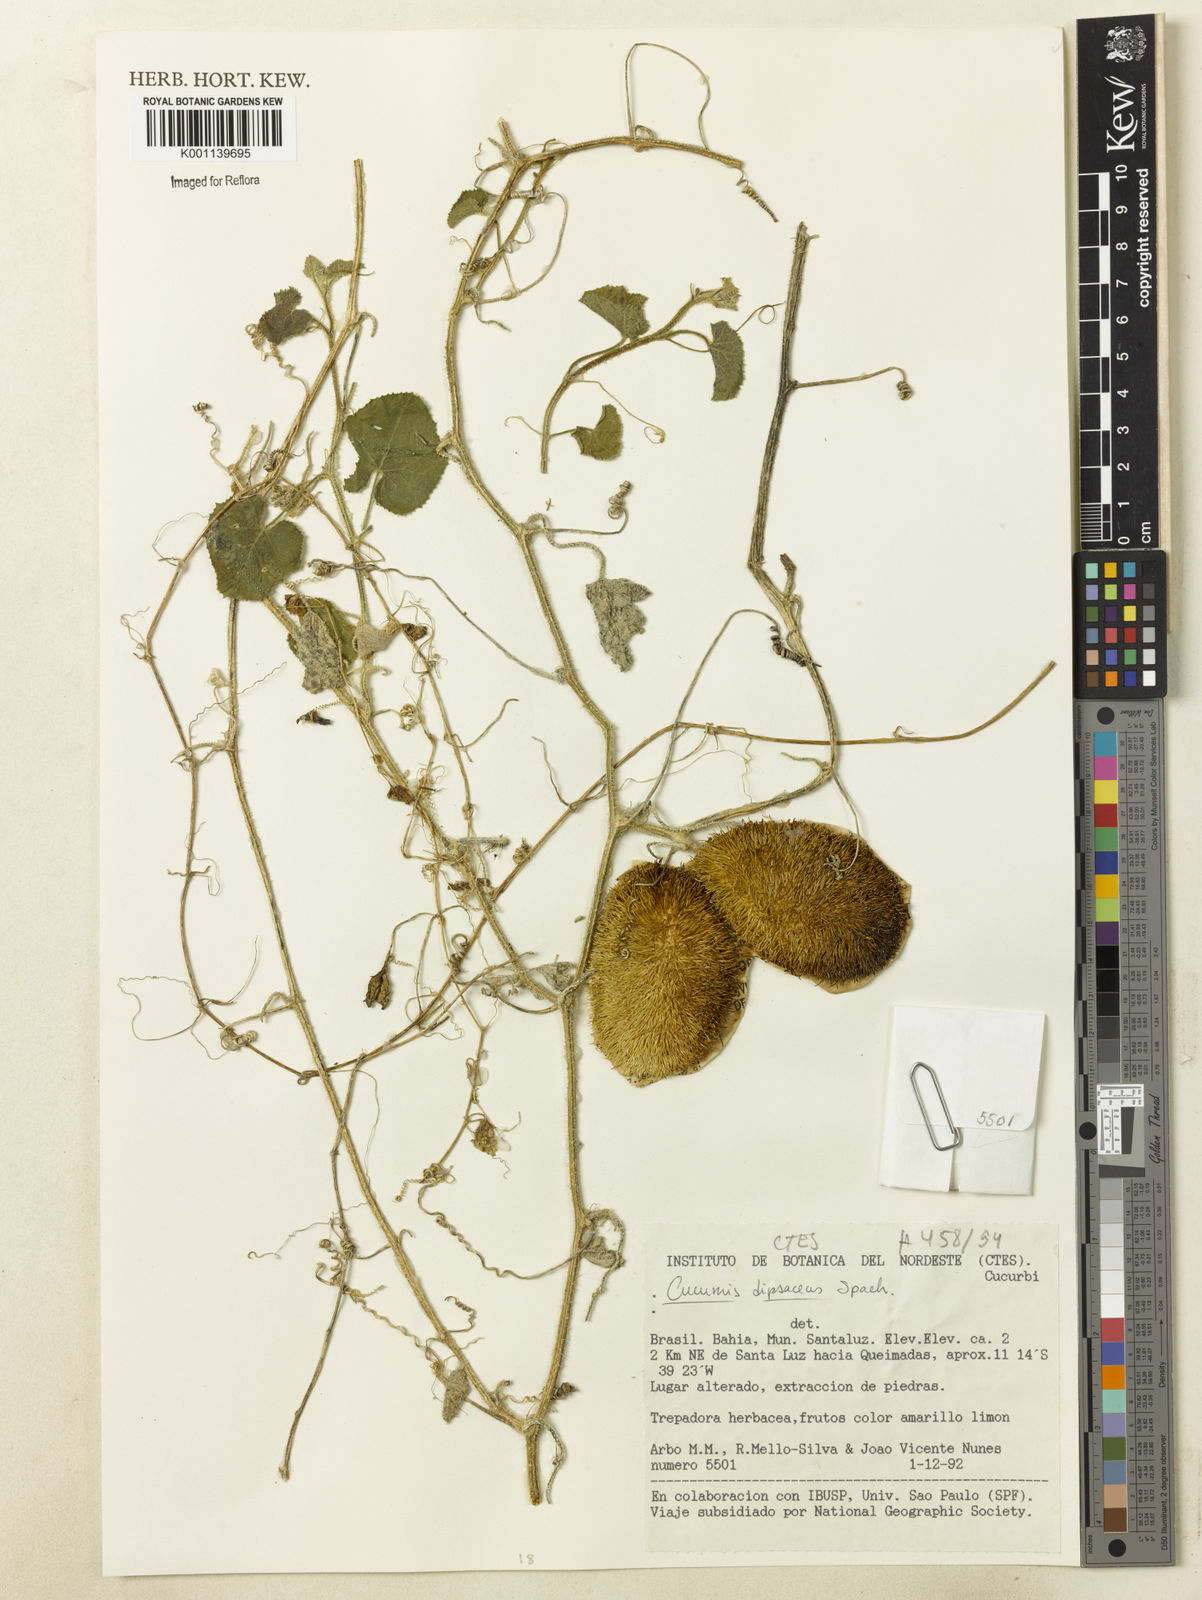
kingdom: Plantae
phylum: Tracheophyta
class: Magnoliopsida
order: Cucurbitales
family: Cucurbitaceae
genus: Cucumis
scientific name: Cucumis
